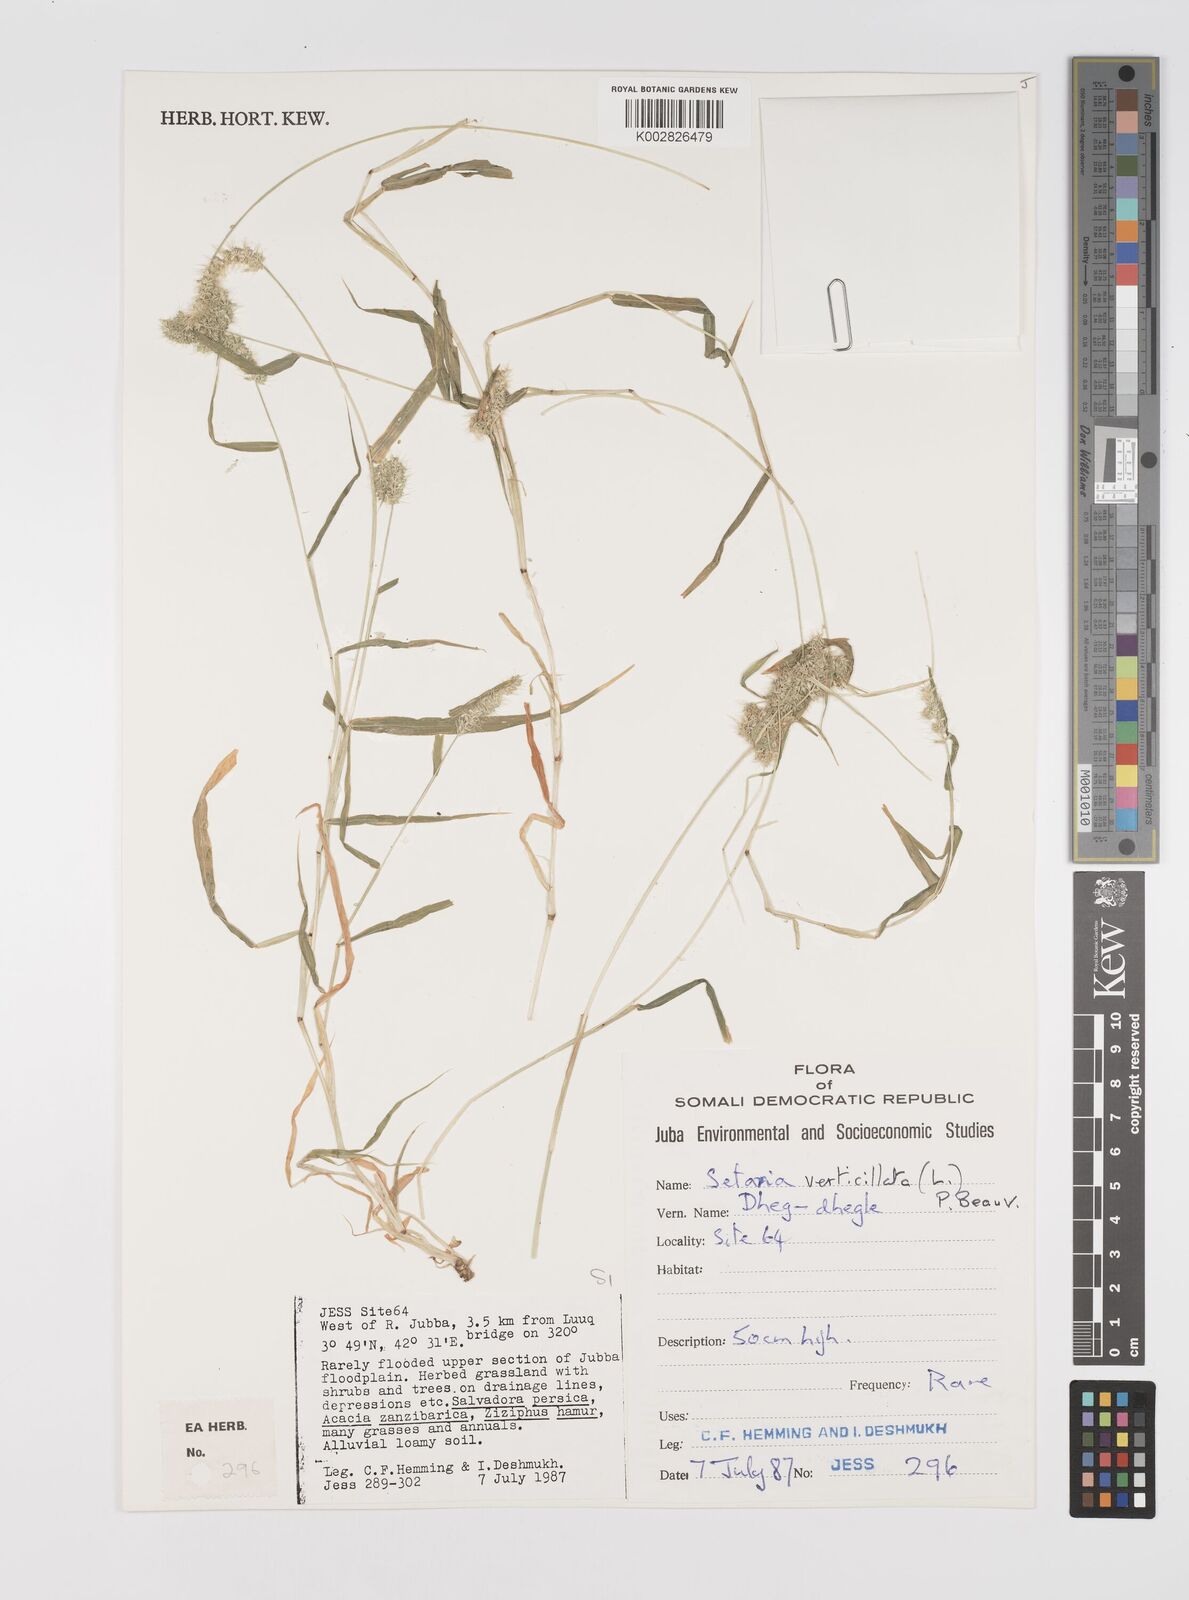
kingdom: Plantae
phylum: Tracheophyta
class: Liliopsida
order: Poales
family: Poaceae
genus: Setaria
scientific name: Setaria verticillata
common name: Hooked bristlegrass
